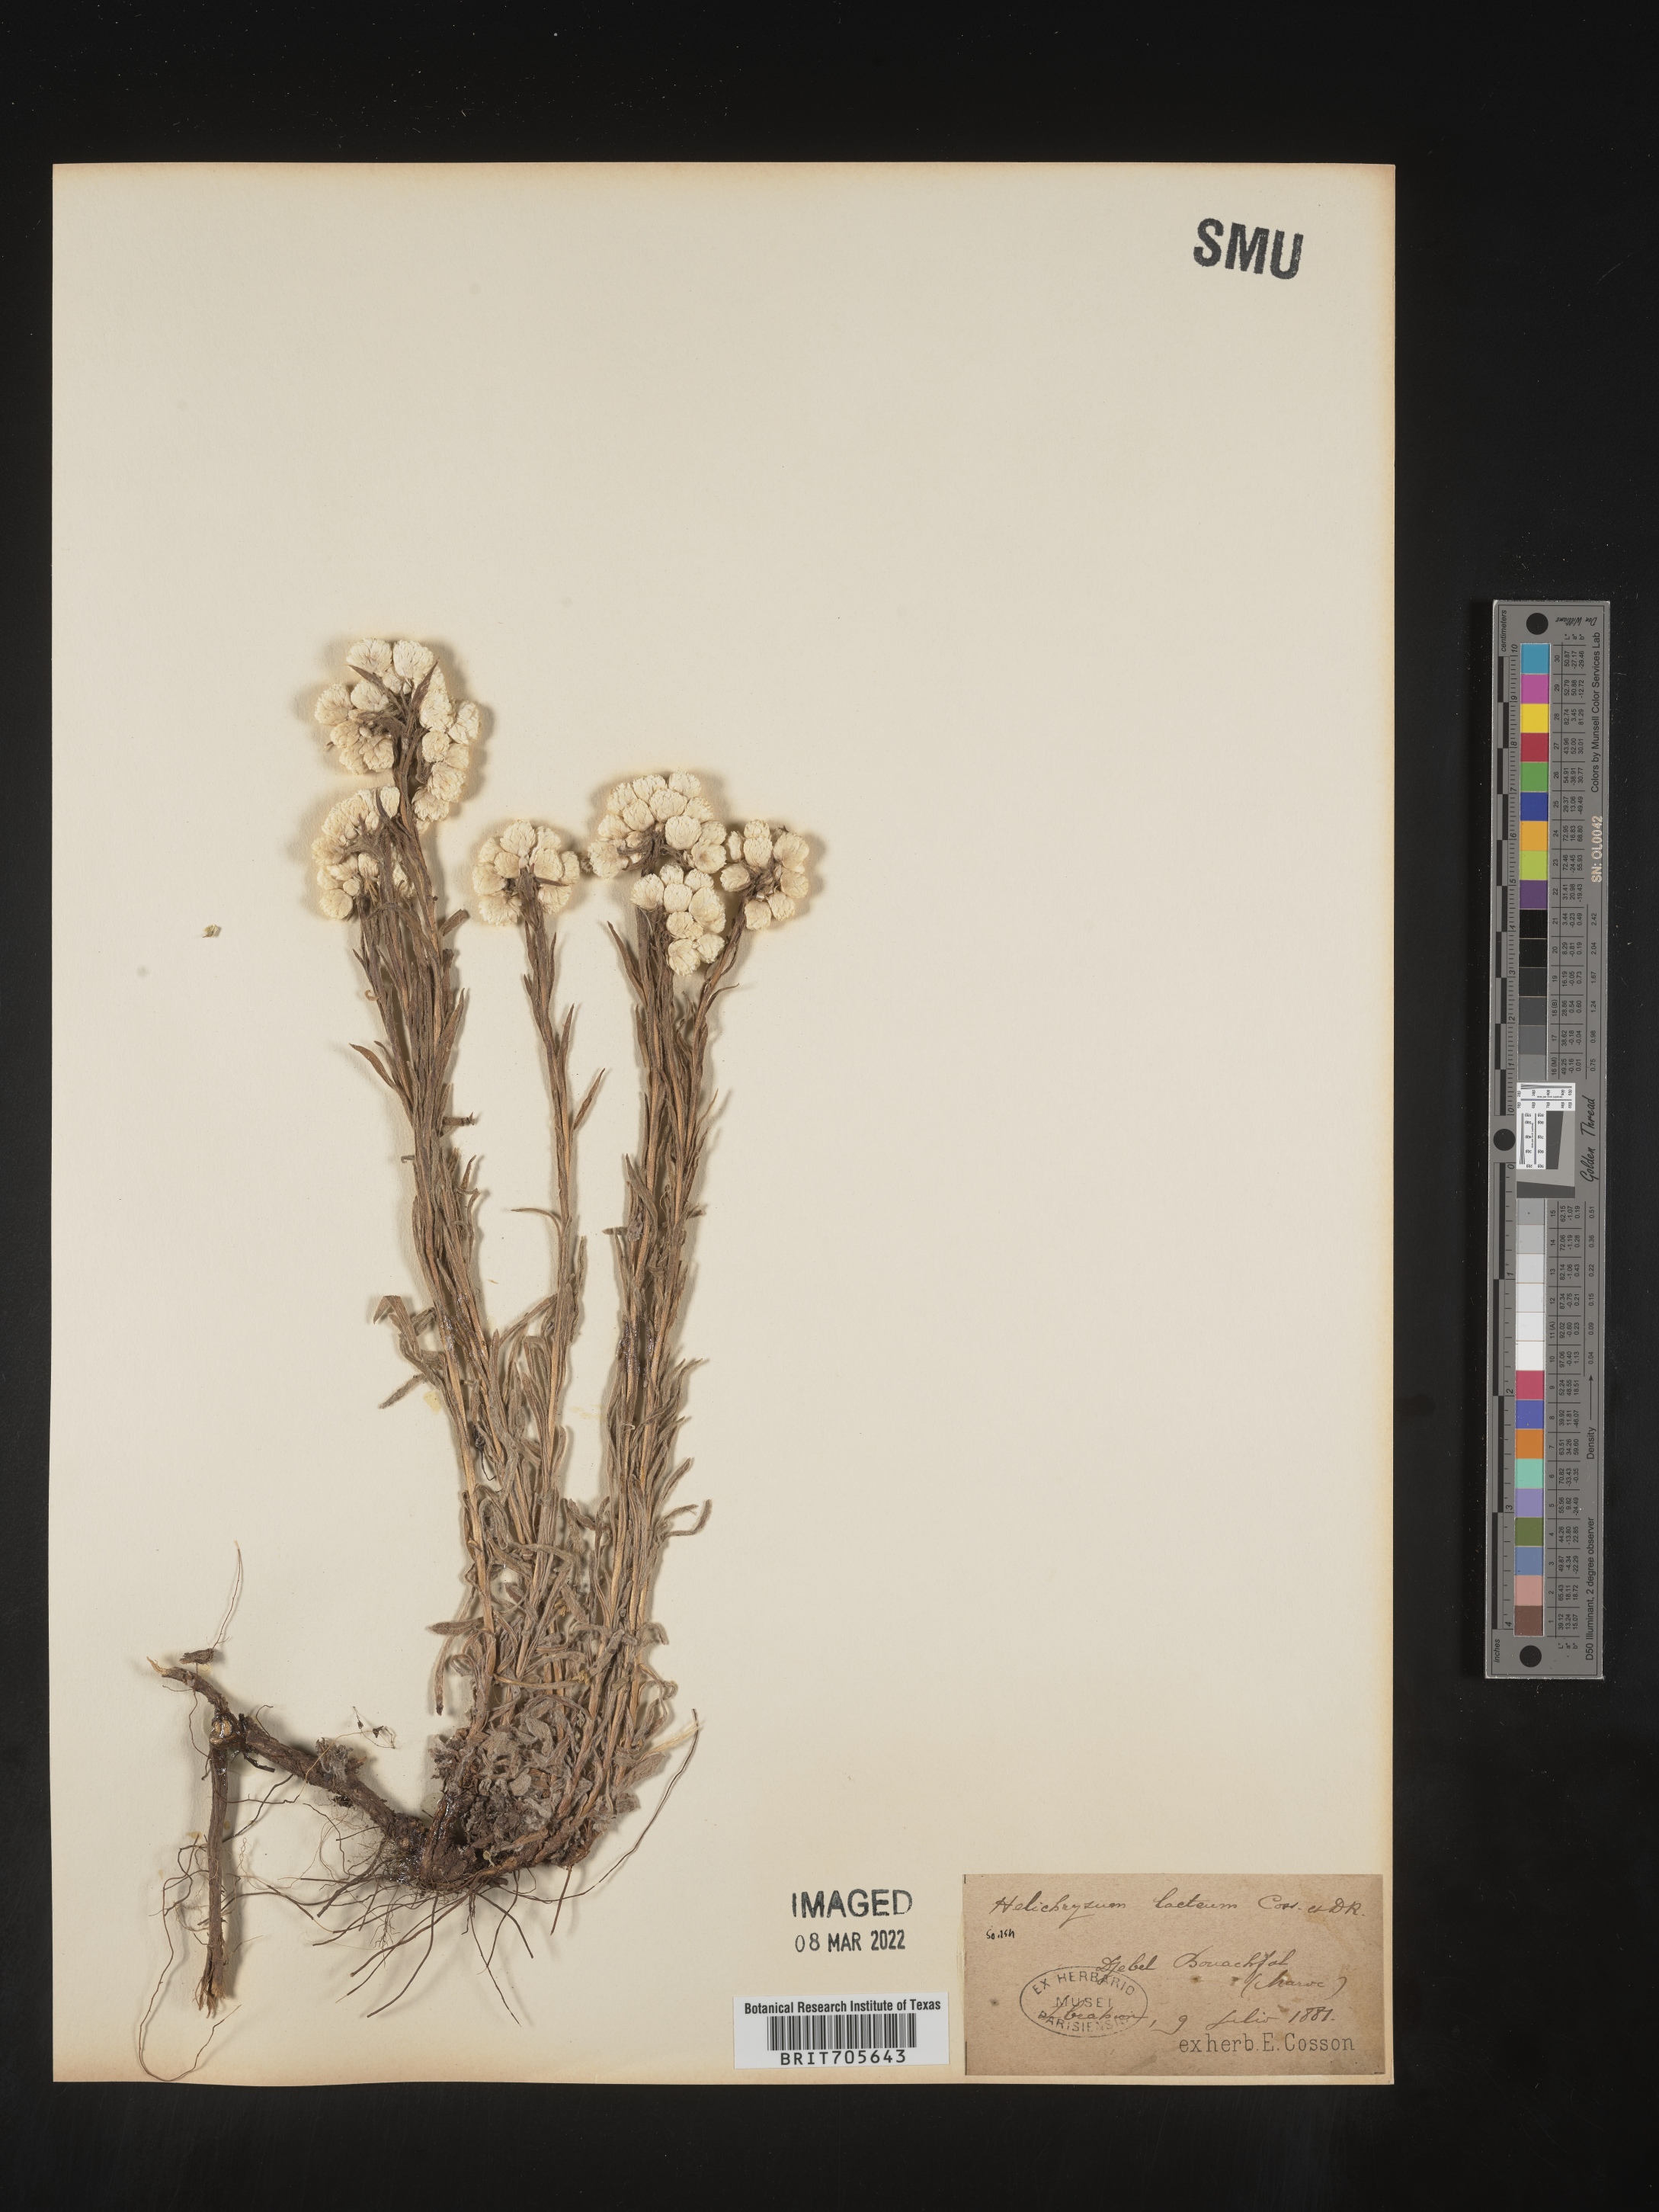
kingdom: Plantae
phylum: Tracheophyta
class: Magnoliopsida
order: Asterales
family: Asteraceae
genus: Helichrysum
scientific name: Helichrysum
